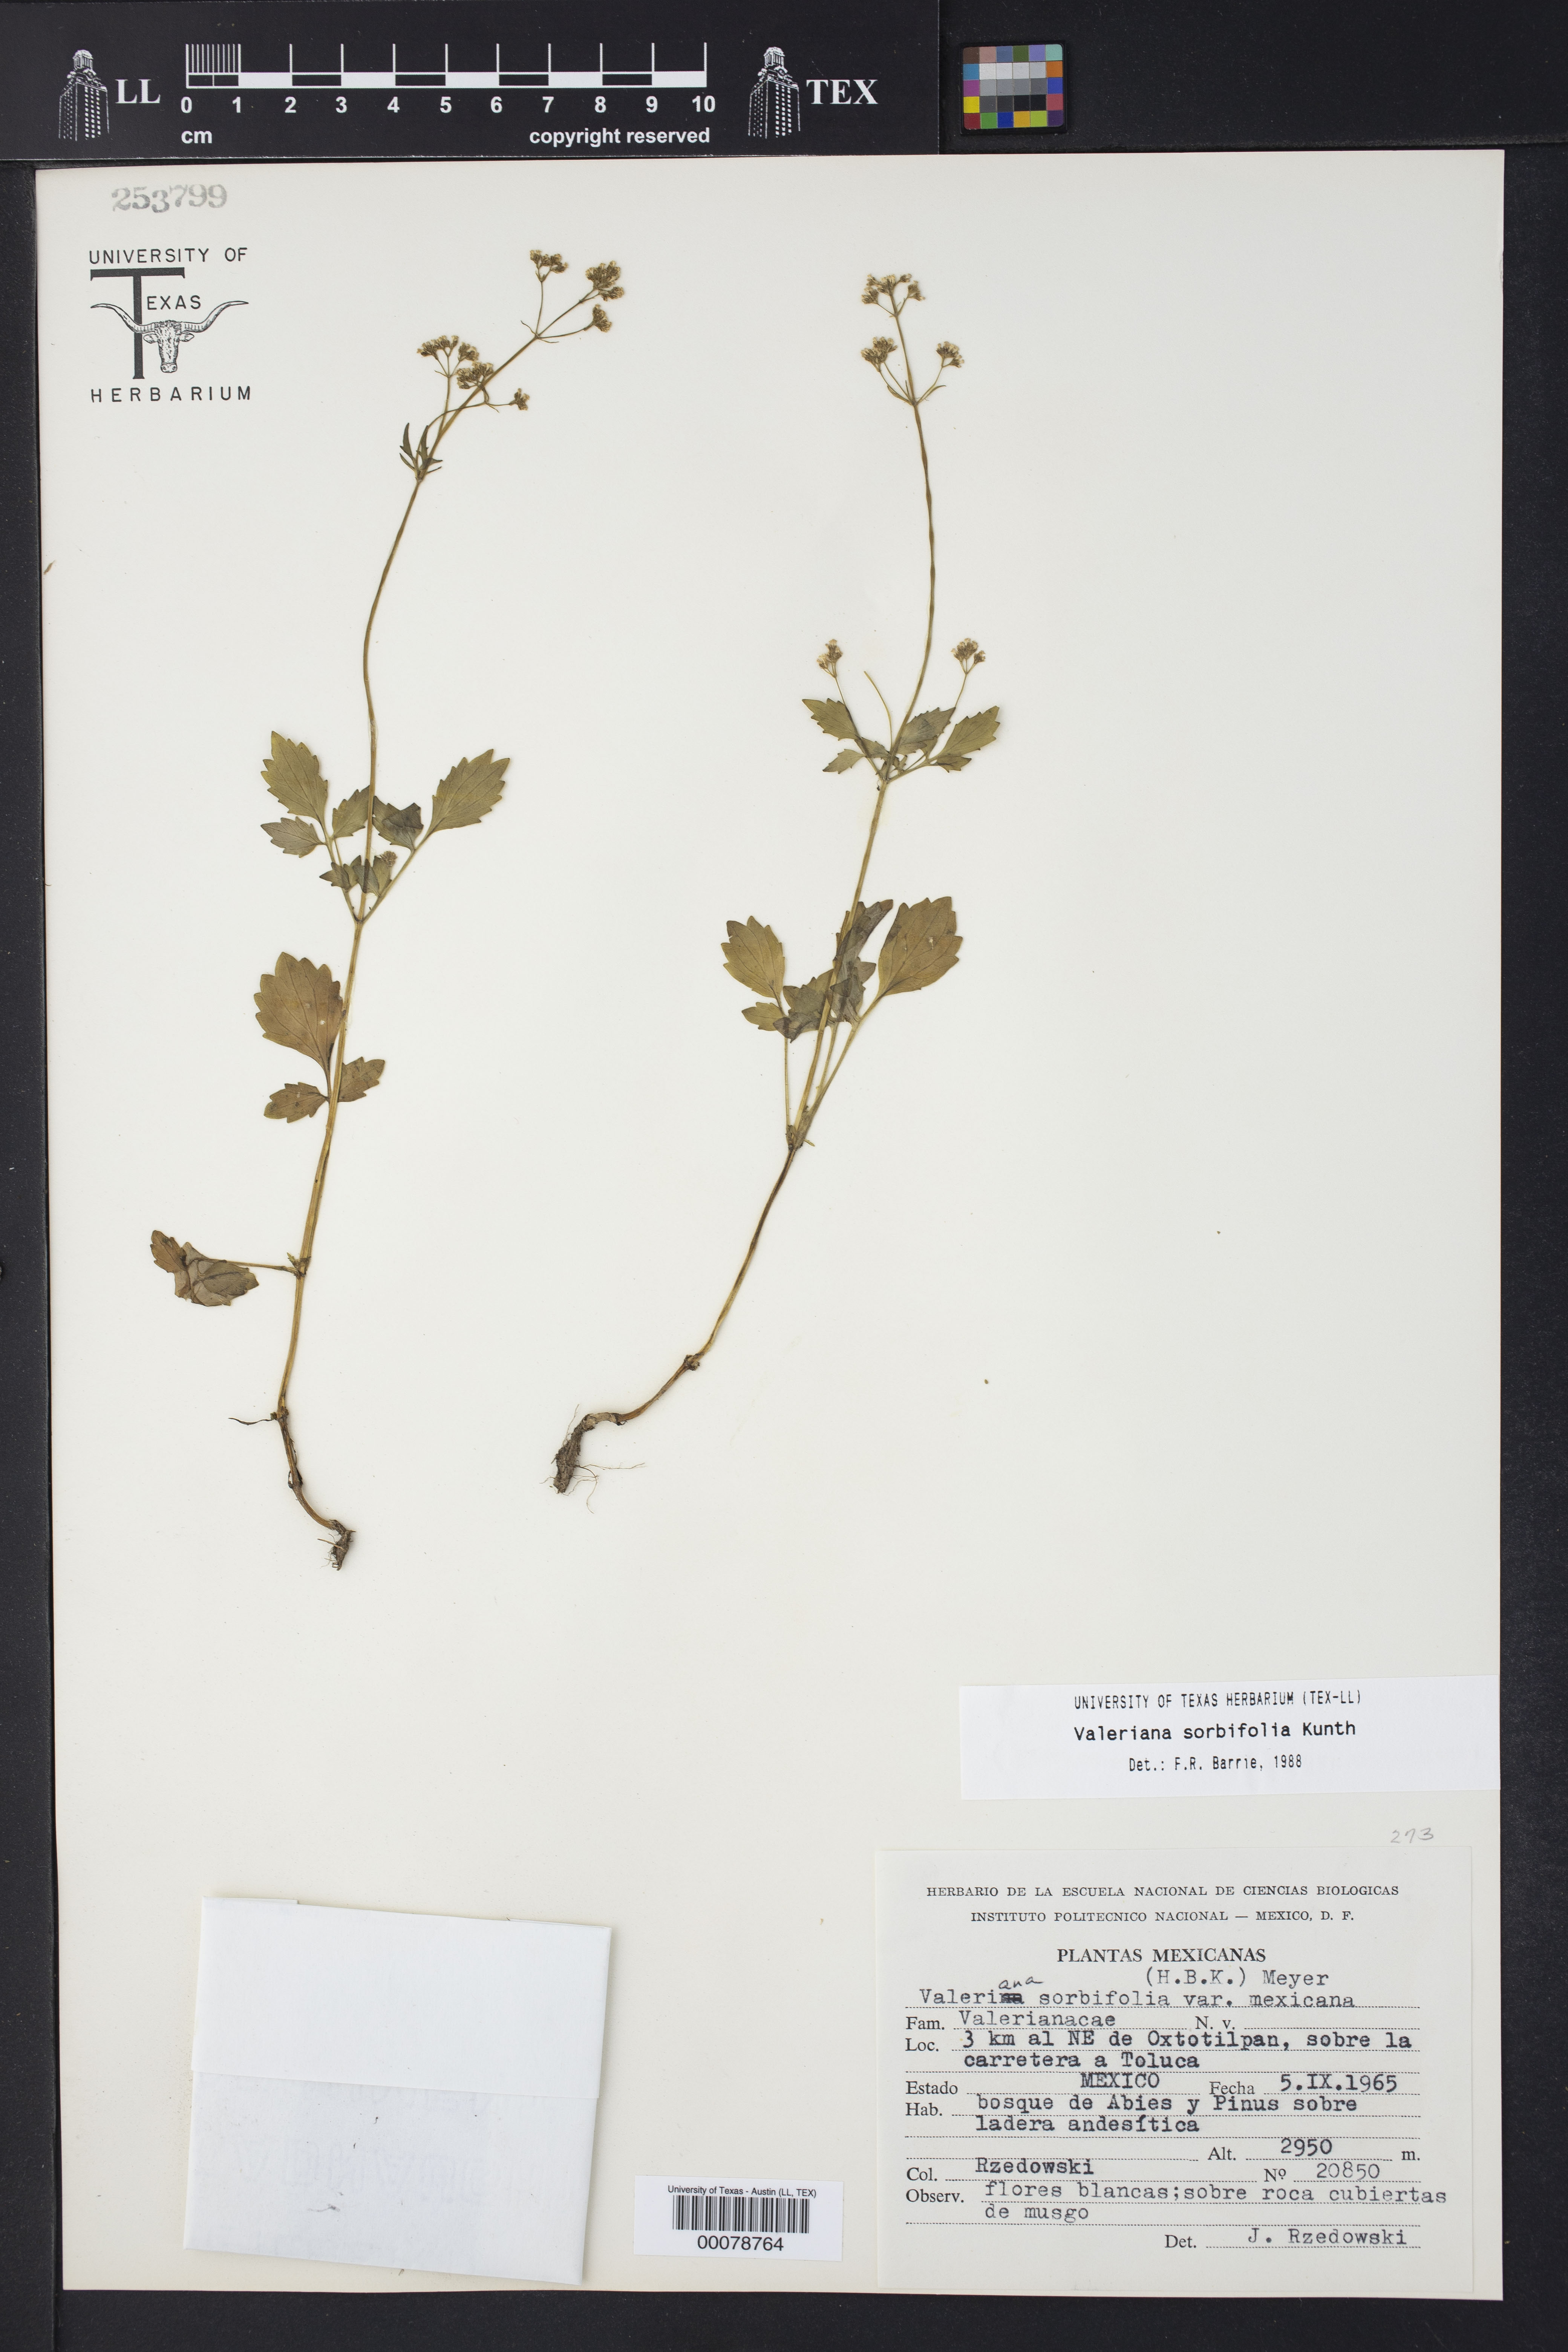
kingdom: Plantae
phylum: Tracheophyta
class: Magnoliopsida
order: Dipsacales
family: Caprifoliaceae
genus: Valeriana
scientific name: Valeriana sorbifolia
